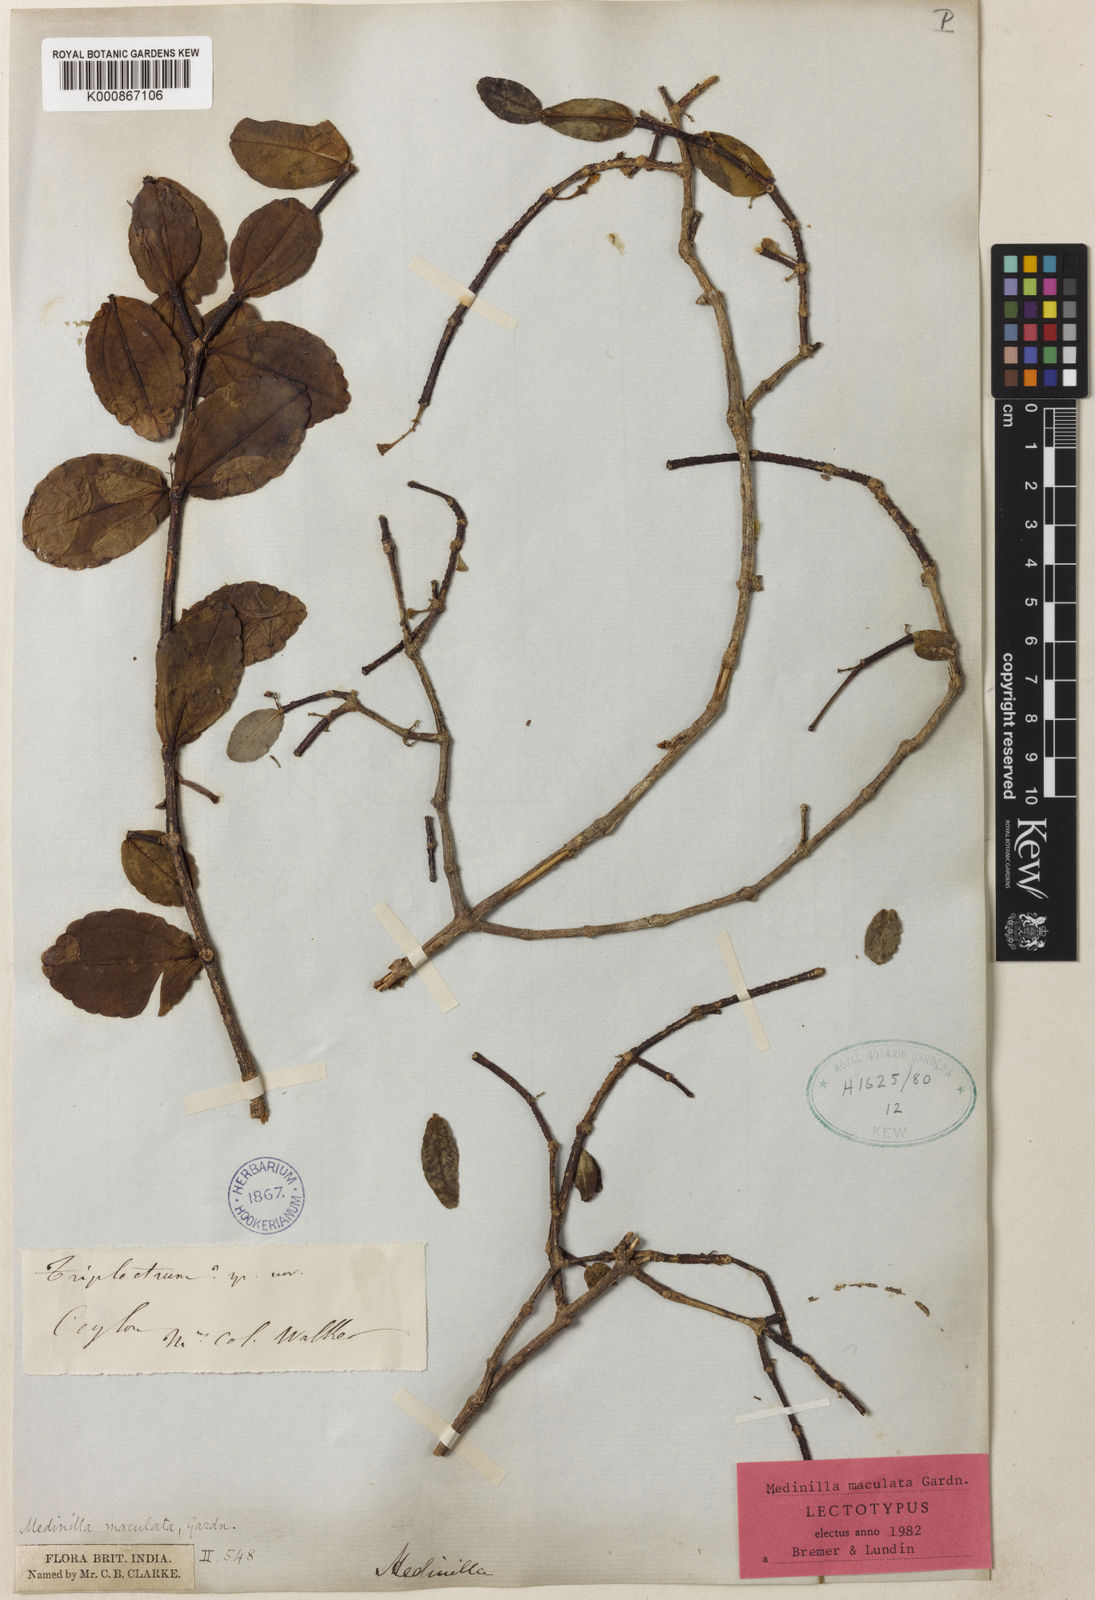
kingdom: Plantae
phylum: Tracheophyta
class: Magnoliopsida
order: Myrtales
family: Melastomataceae
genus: Medinilla
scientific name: Medinilla maculata
